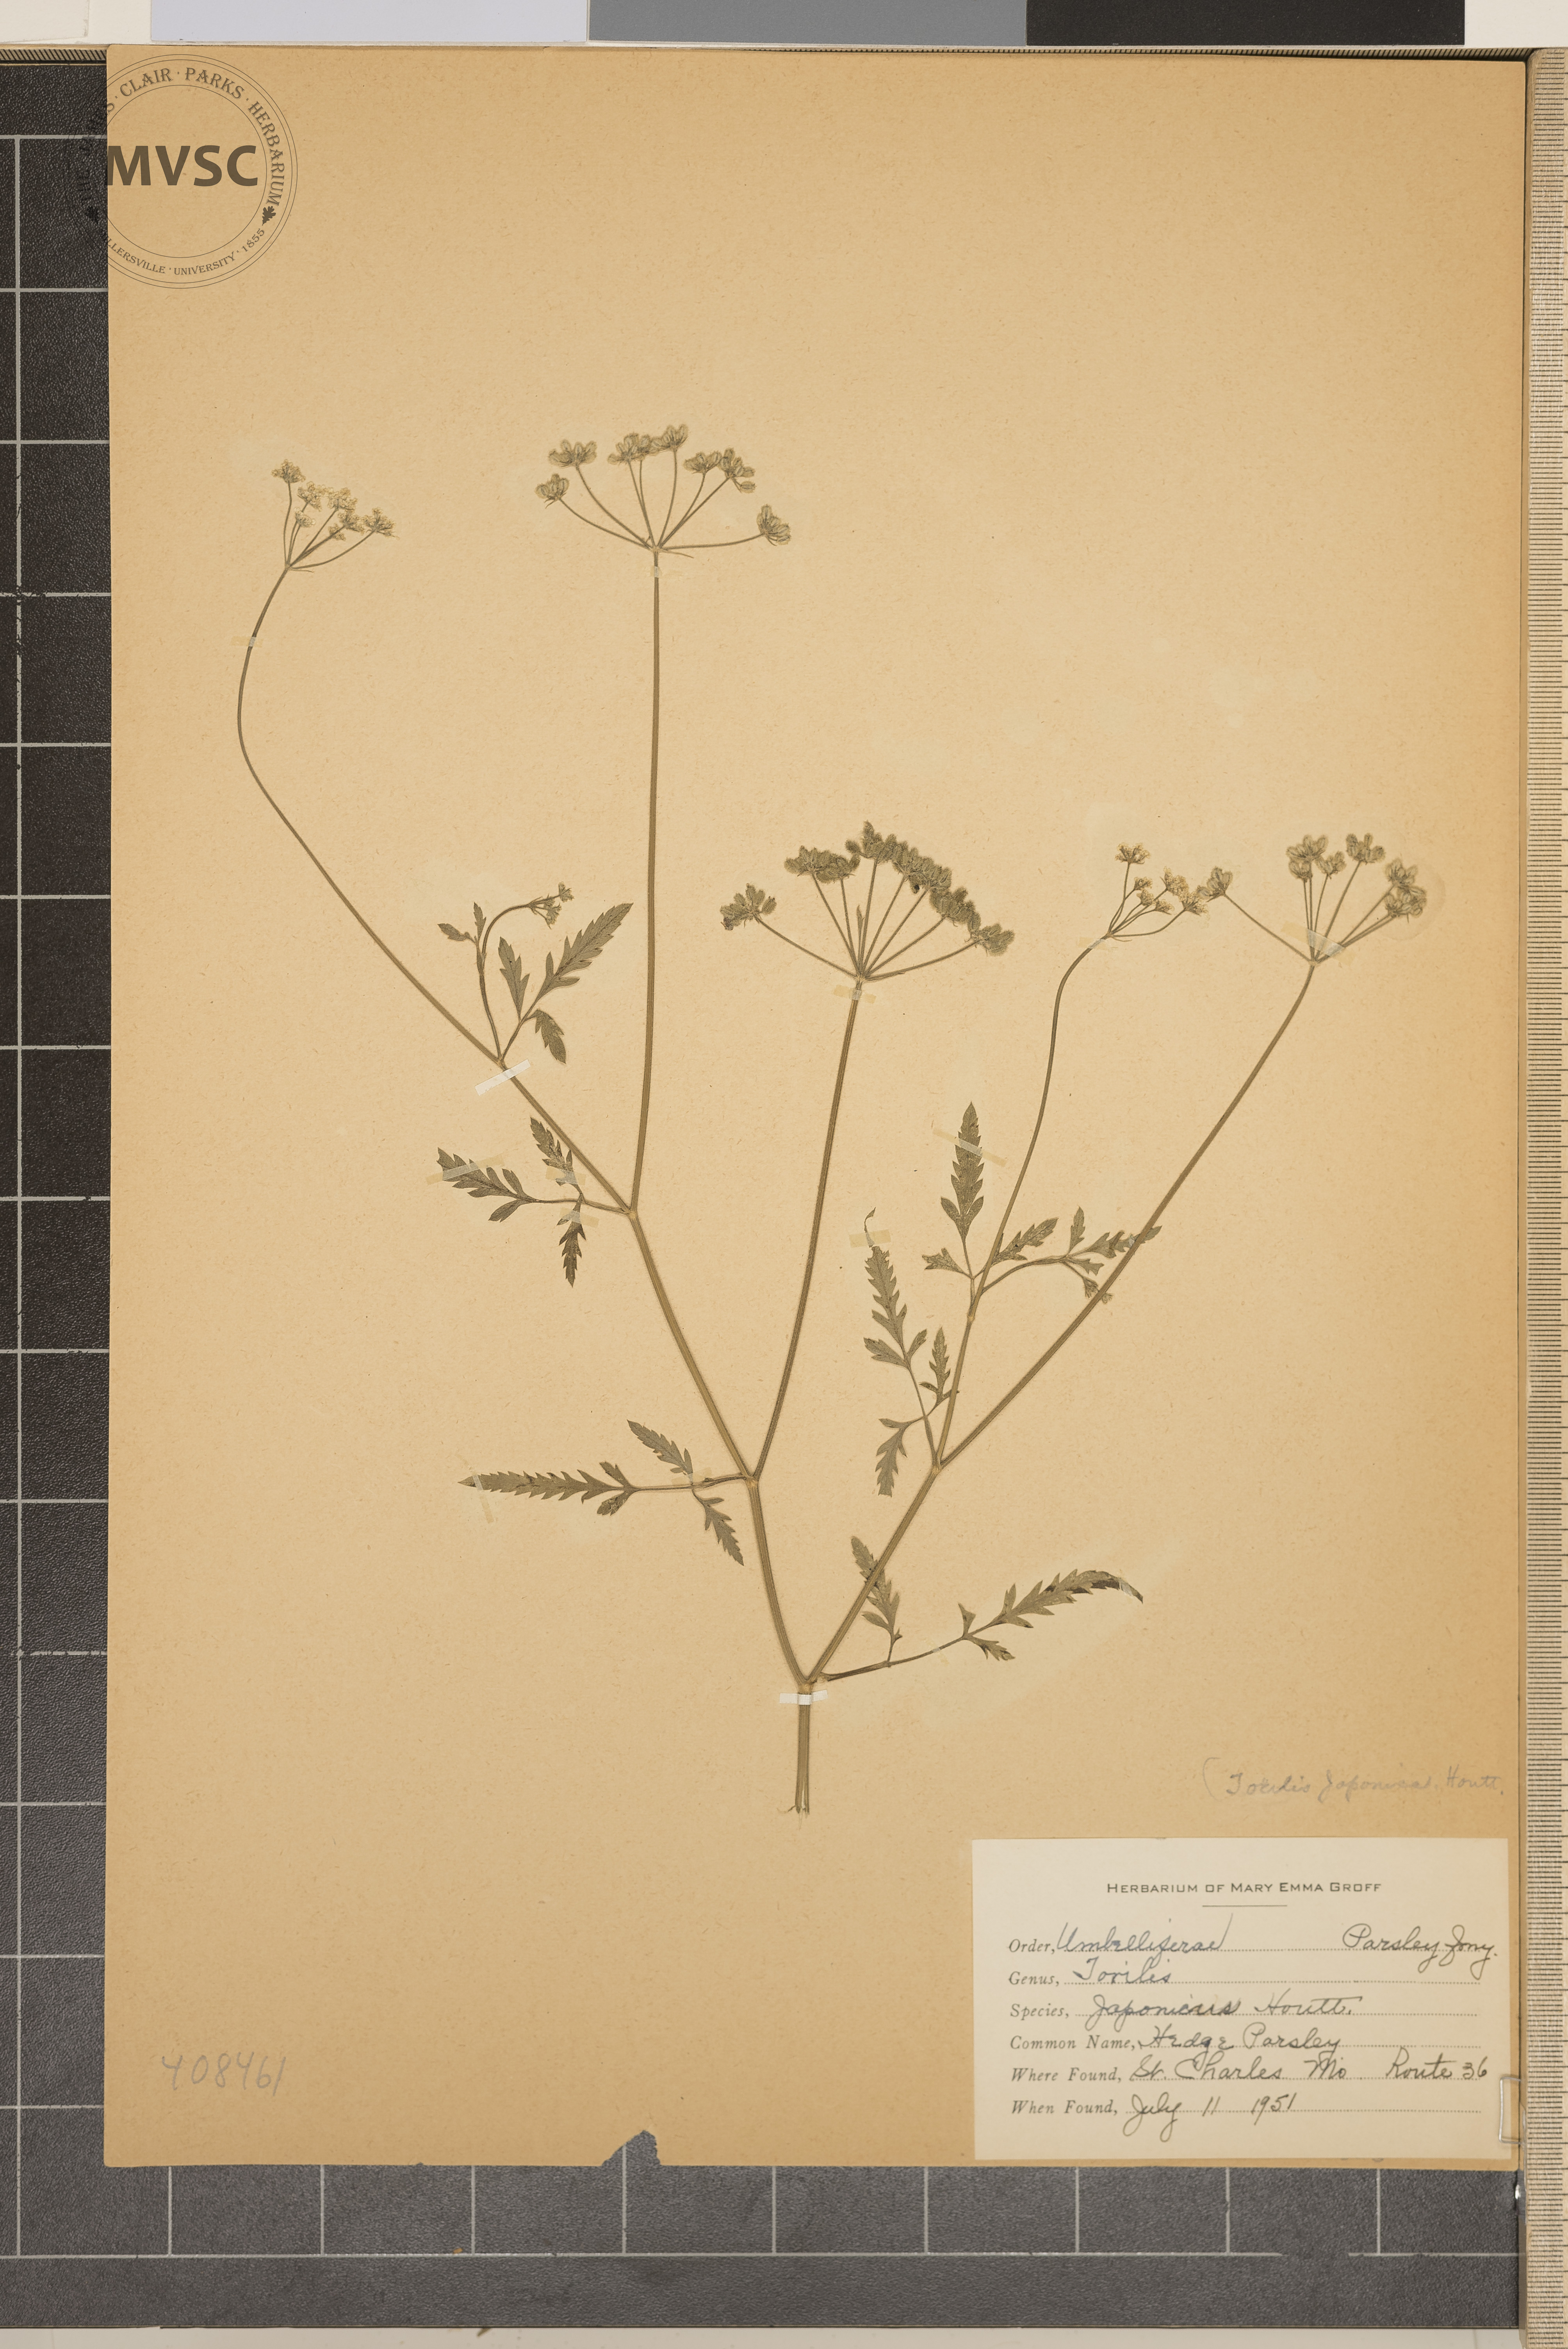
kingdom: Plantae
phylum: Tracheophyta
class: Magnoliopsida
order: Apiales
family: Apiaceae
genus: Torilis
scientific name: Torilis japonica
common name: Hedgeparsley
